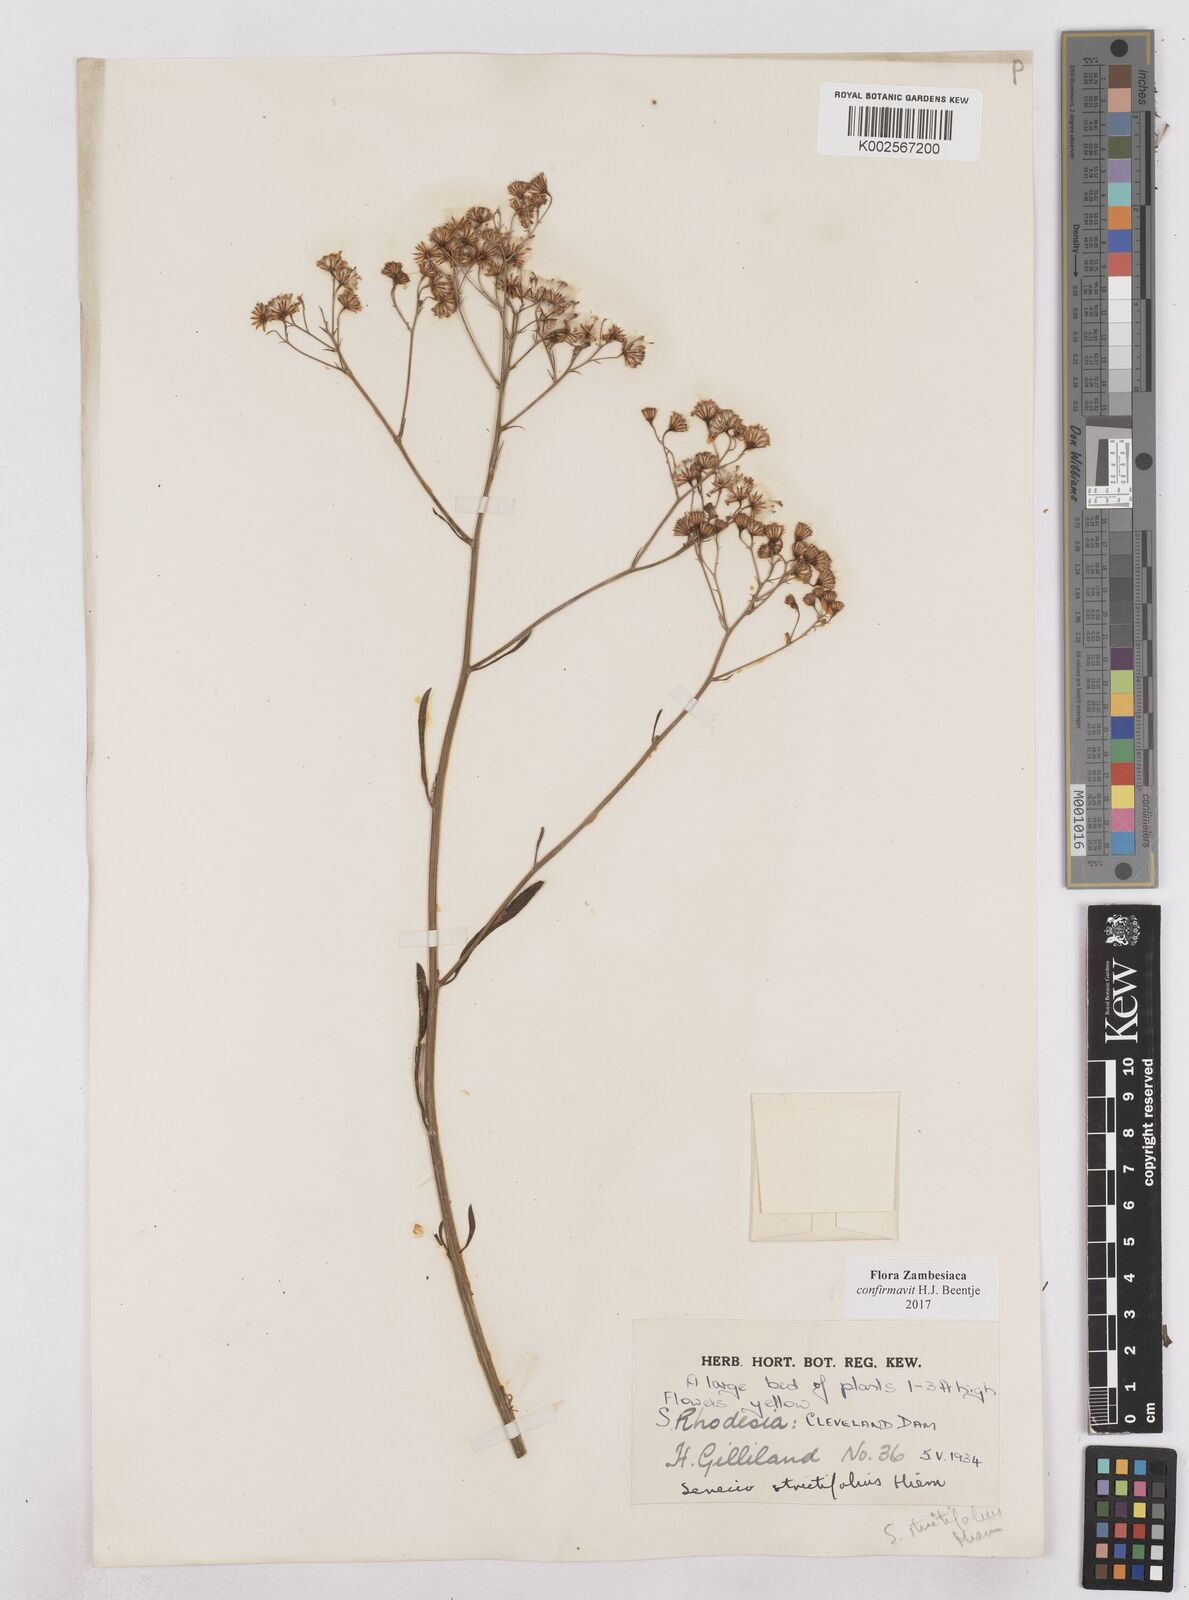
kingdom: Plantae
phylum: Tracheophyta
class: Magnoliopsida
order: Asterales
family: Asteraceae
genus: Senecio
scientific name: Senecio strictifolius
